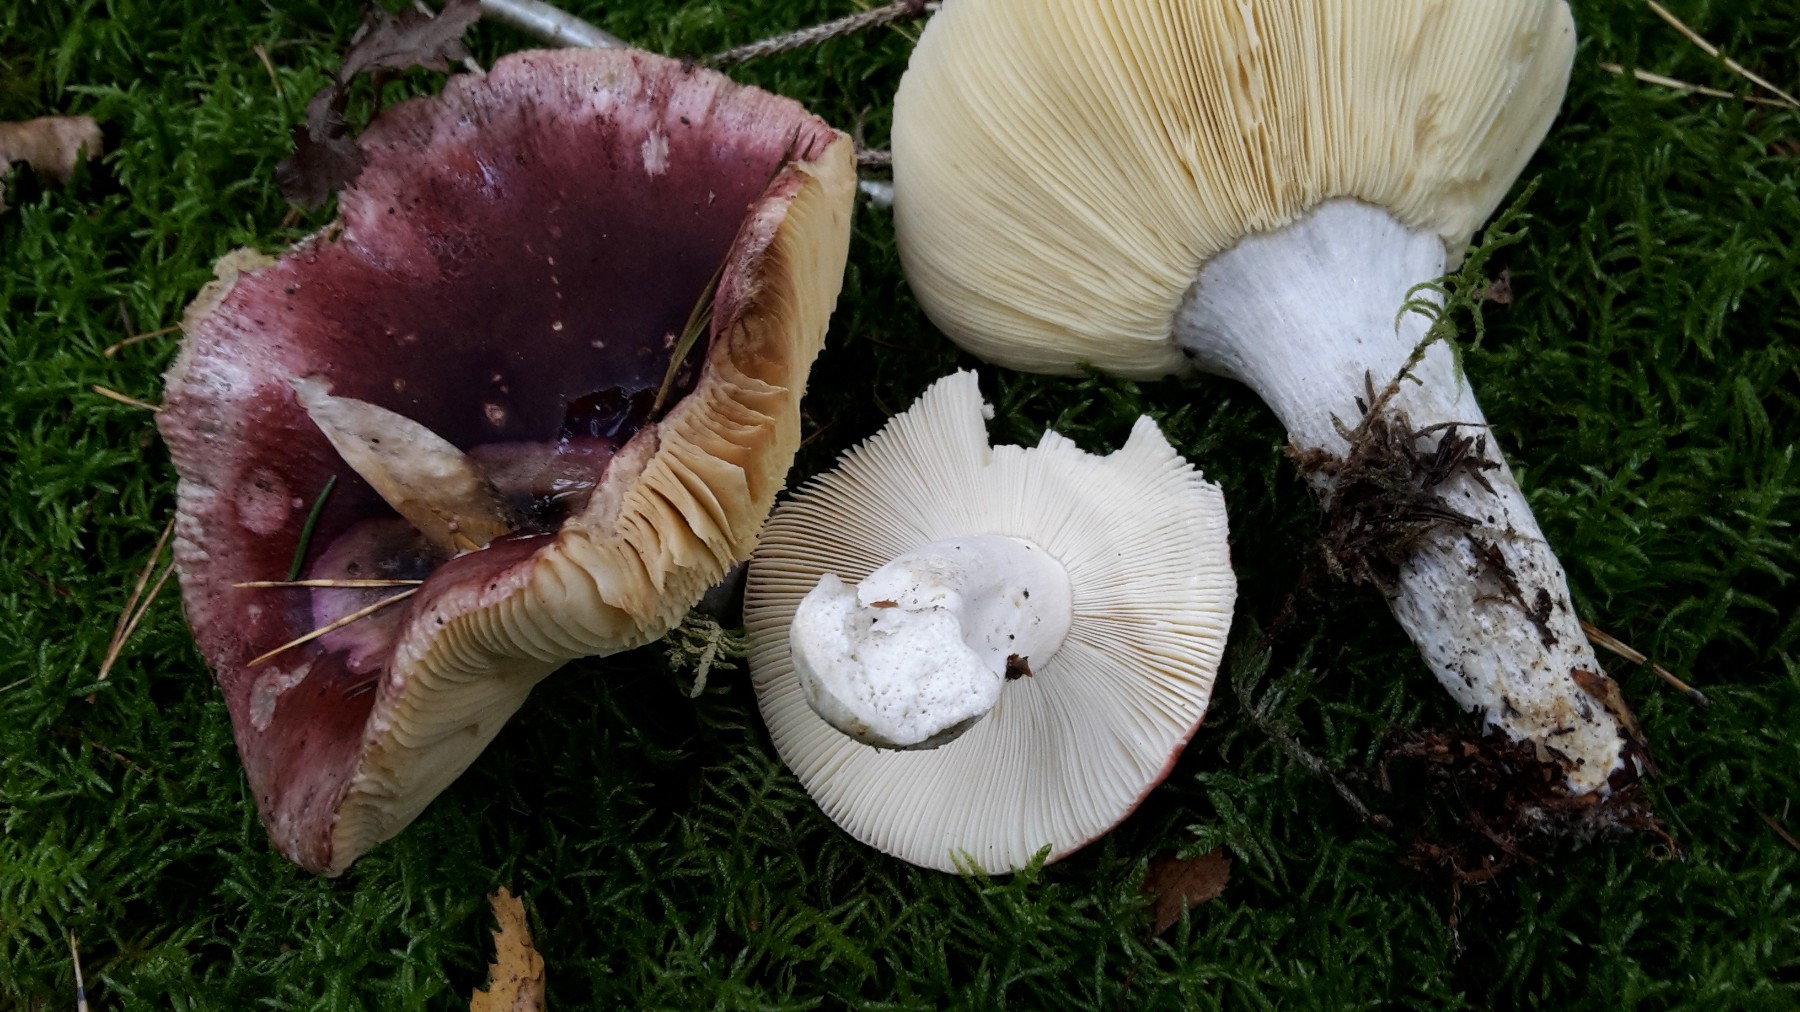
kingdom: Fungi
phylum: Basidiomycota
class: Agaricomycetes
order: Russulales
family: Russulaceae
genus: Russula
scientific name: Russula vinosa
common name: vinrød skørhat
